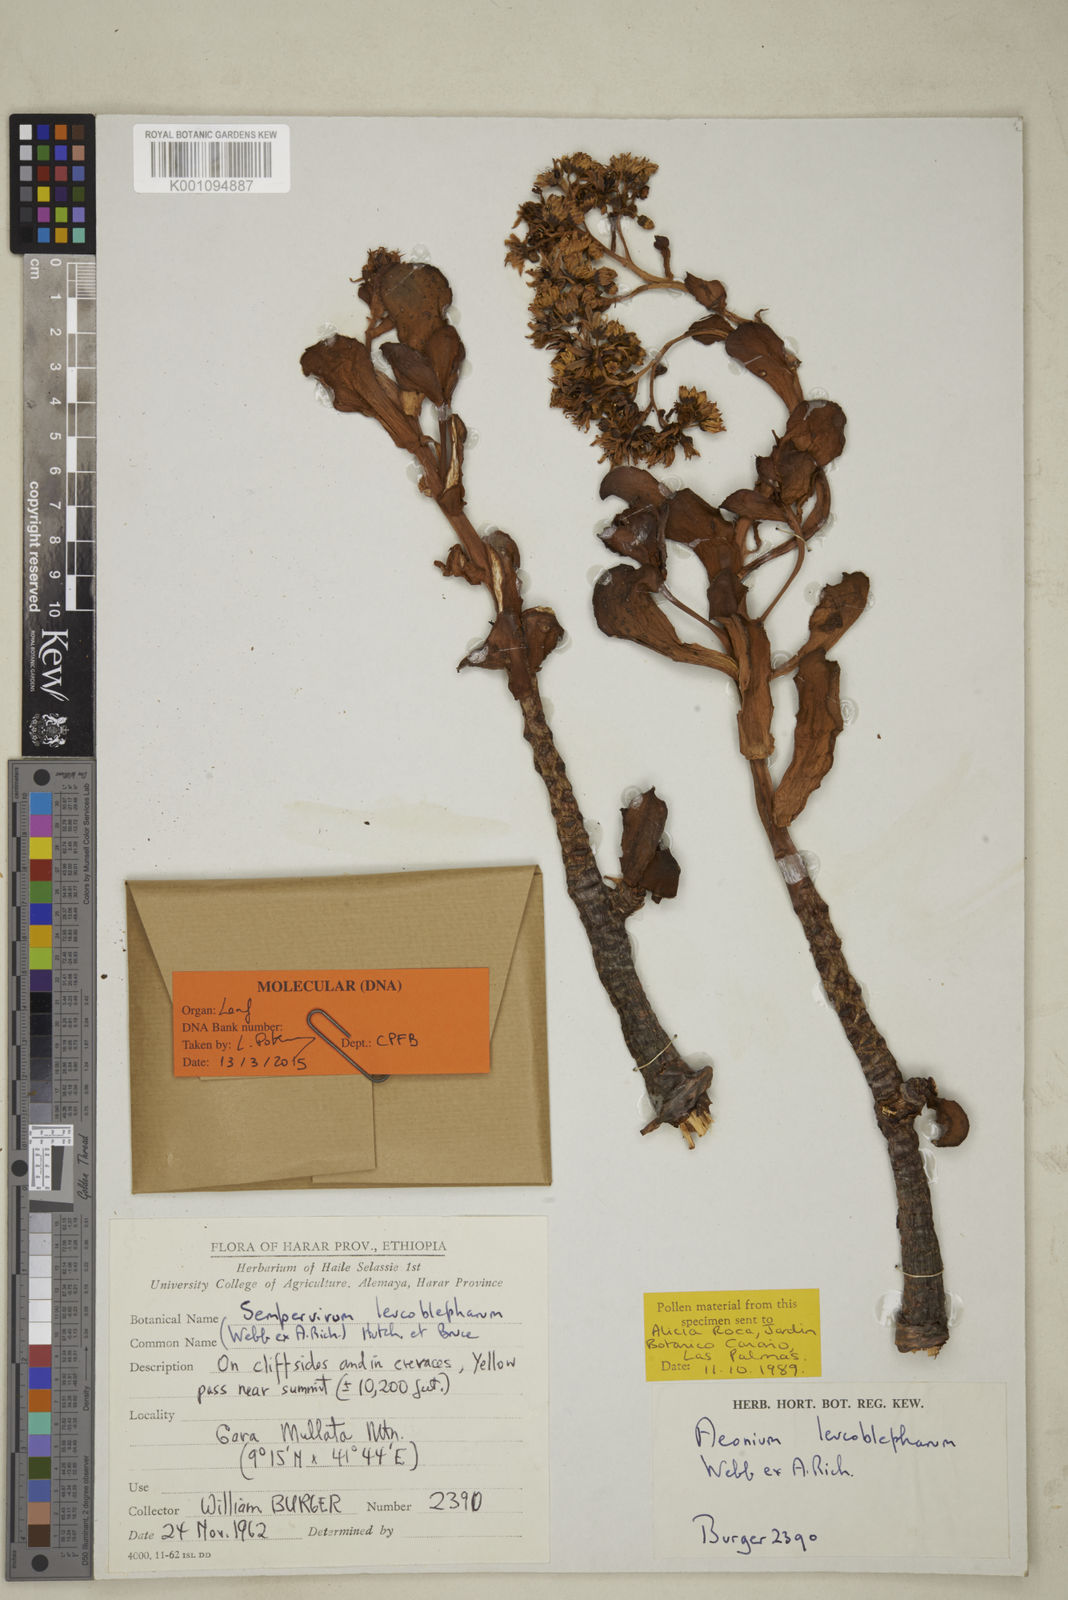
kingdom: Plantae
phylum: Tracheophyta
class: Magnoliopsida
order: Saxifragales
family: Crassulaceae
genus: Aeonium
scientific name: Aeonium leucoblepharum
